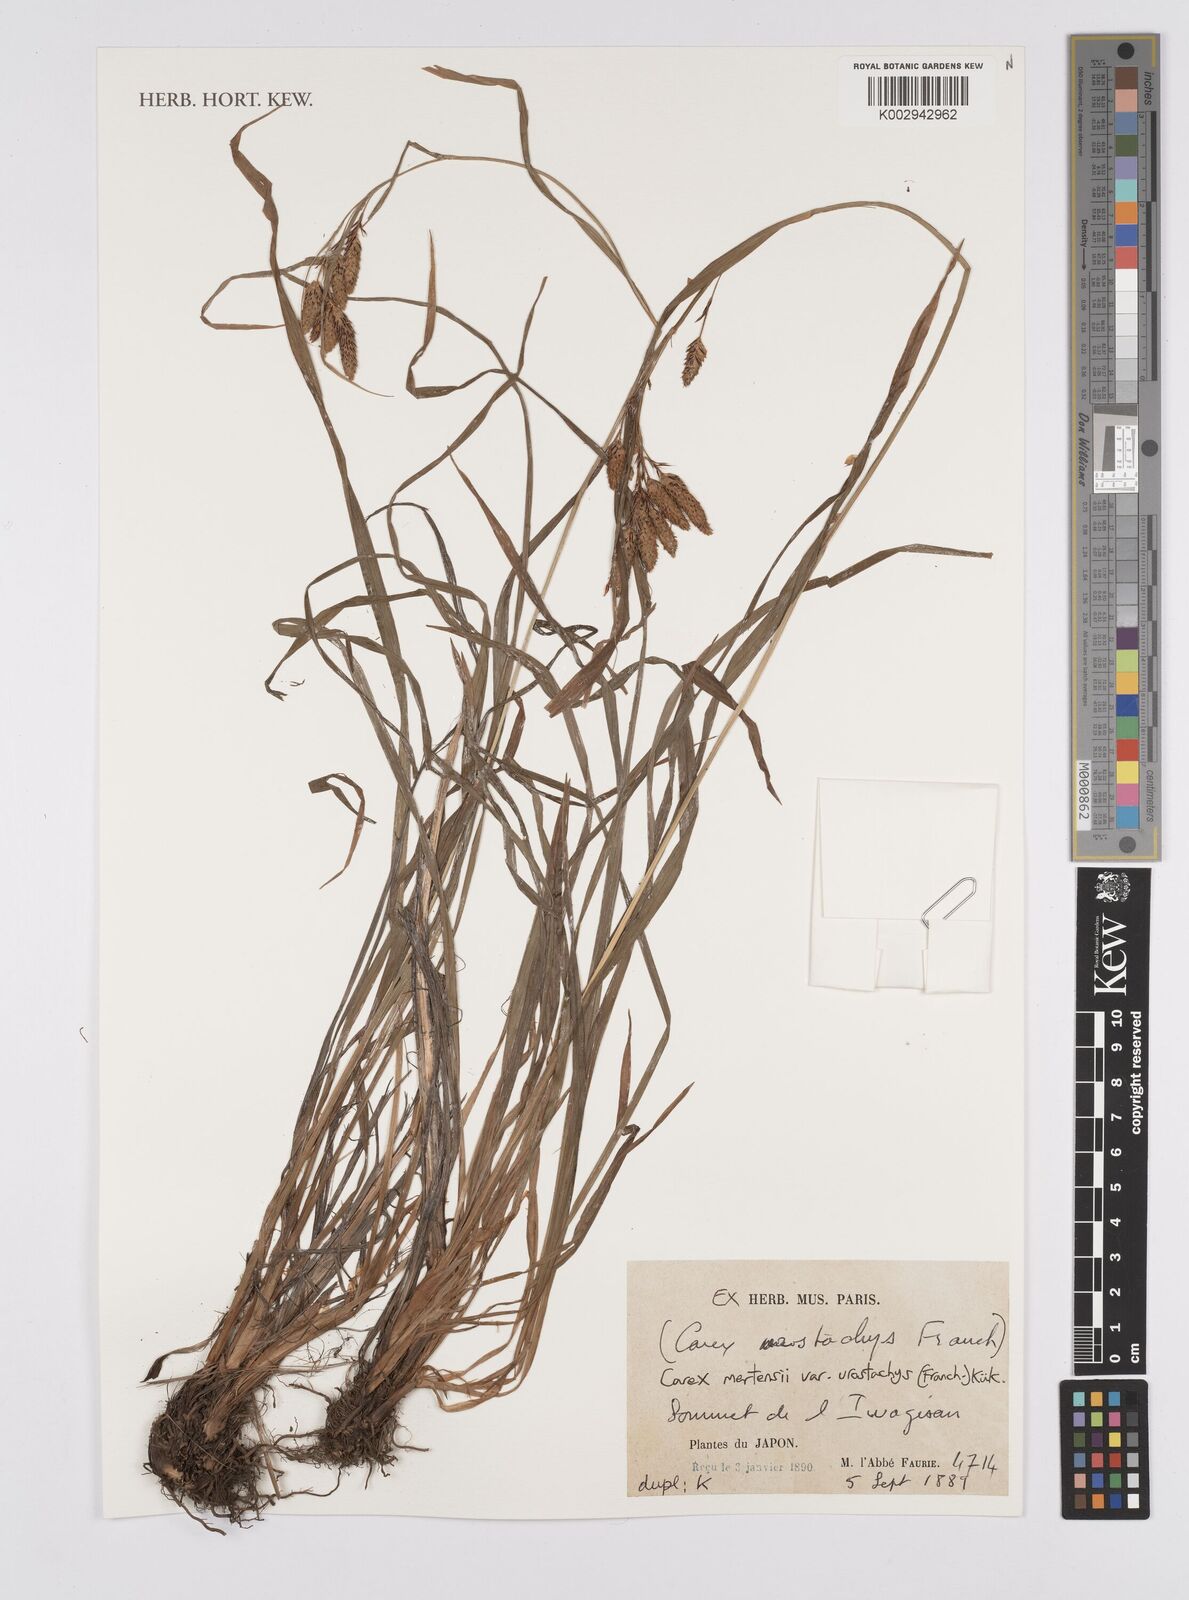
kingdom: Plantae
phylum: Tracheophyta
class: Liliopsida
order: Poales
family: Cyperaceae
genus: Carex
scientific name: Carex mertensii
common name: Mertens' sedge
